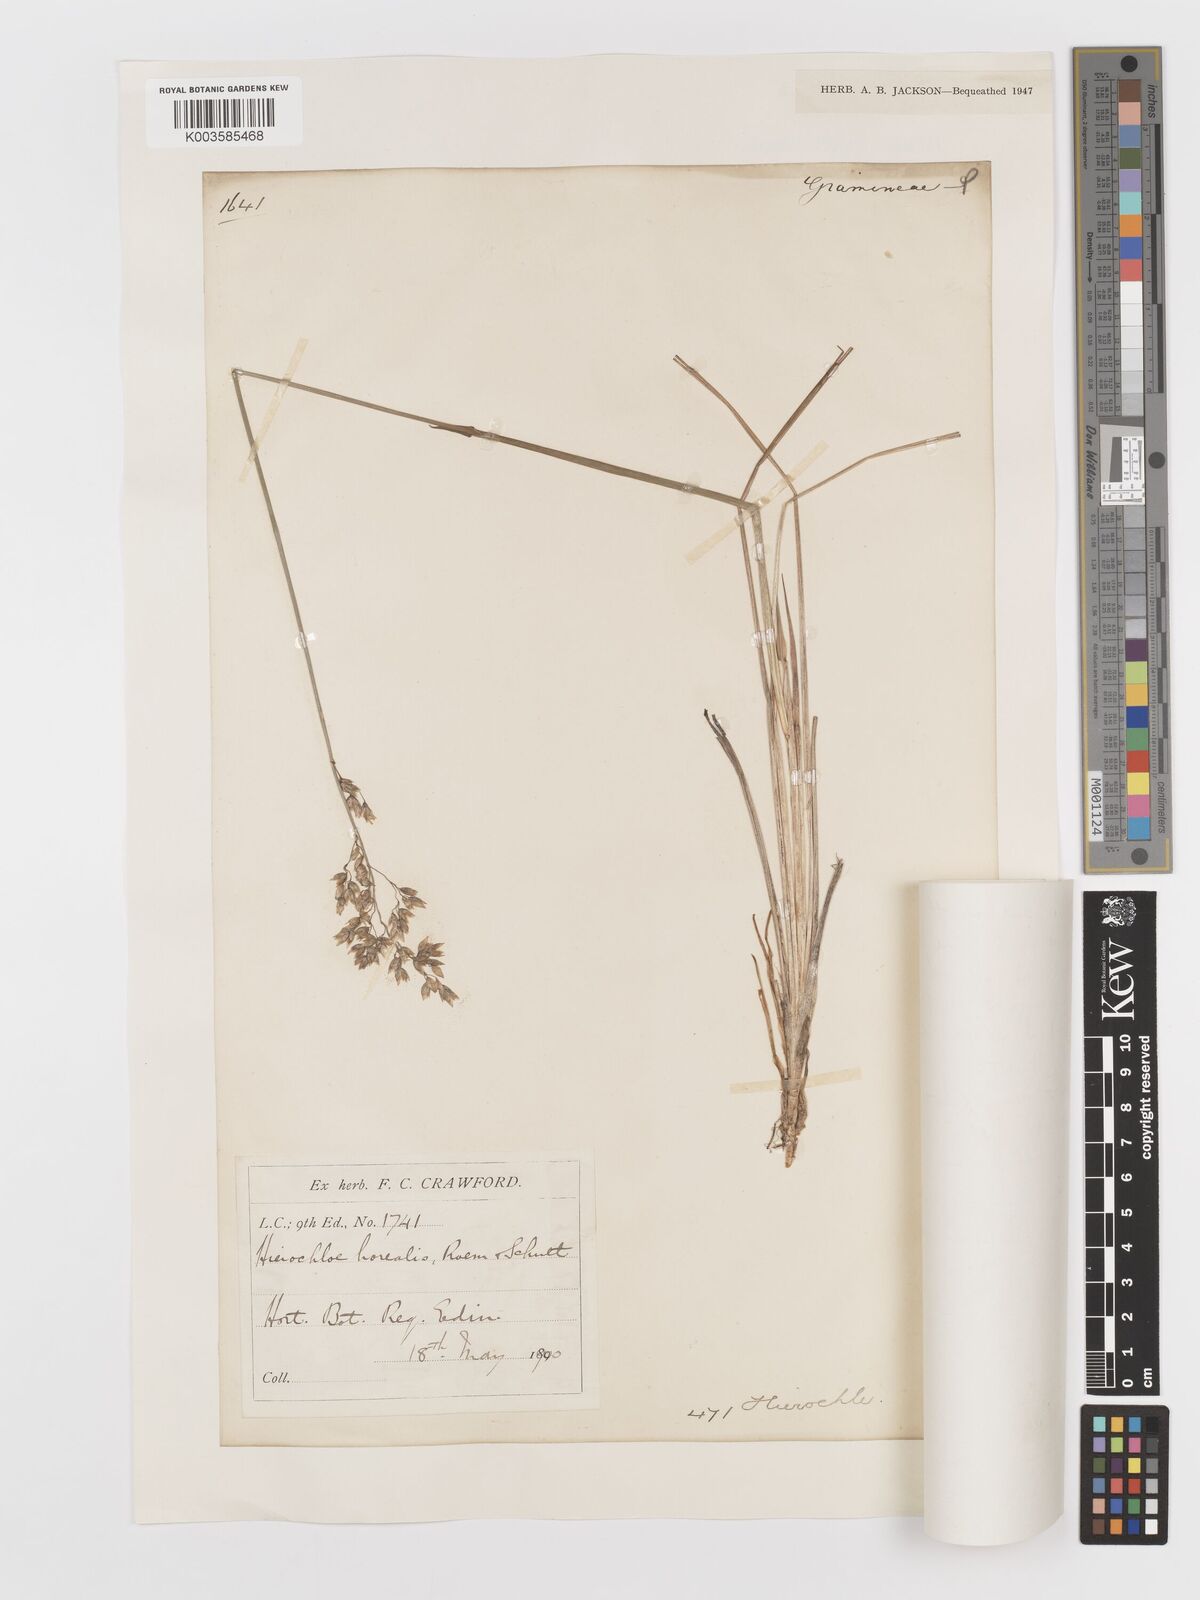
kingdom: Plantae
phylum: Tracheophyta
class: Liliopsida
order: Poales
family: Poaceae
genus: Anthoxanthum
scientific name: Anthoxanthum nitens
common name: Holy grass
